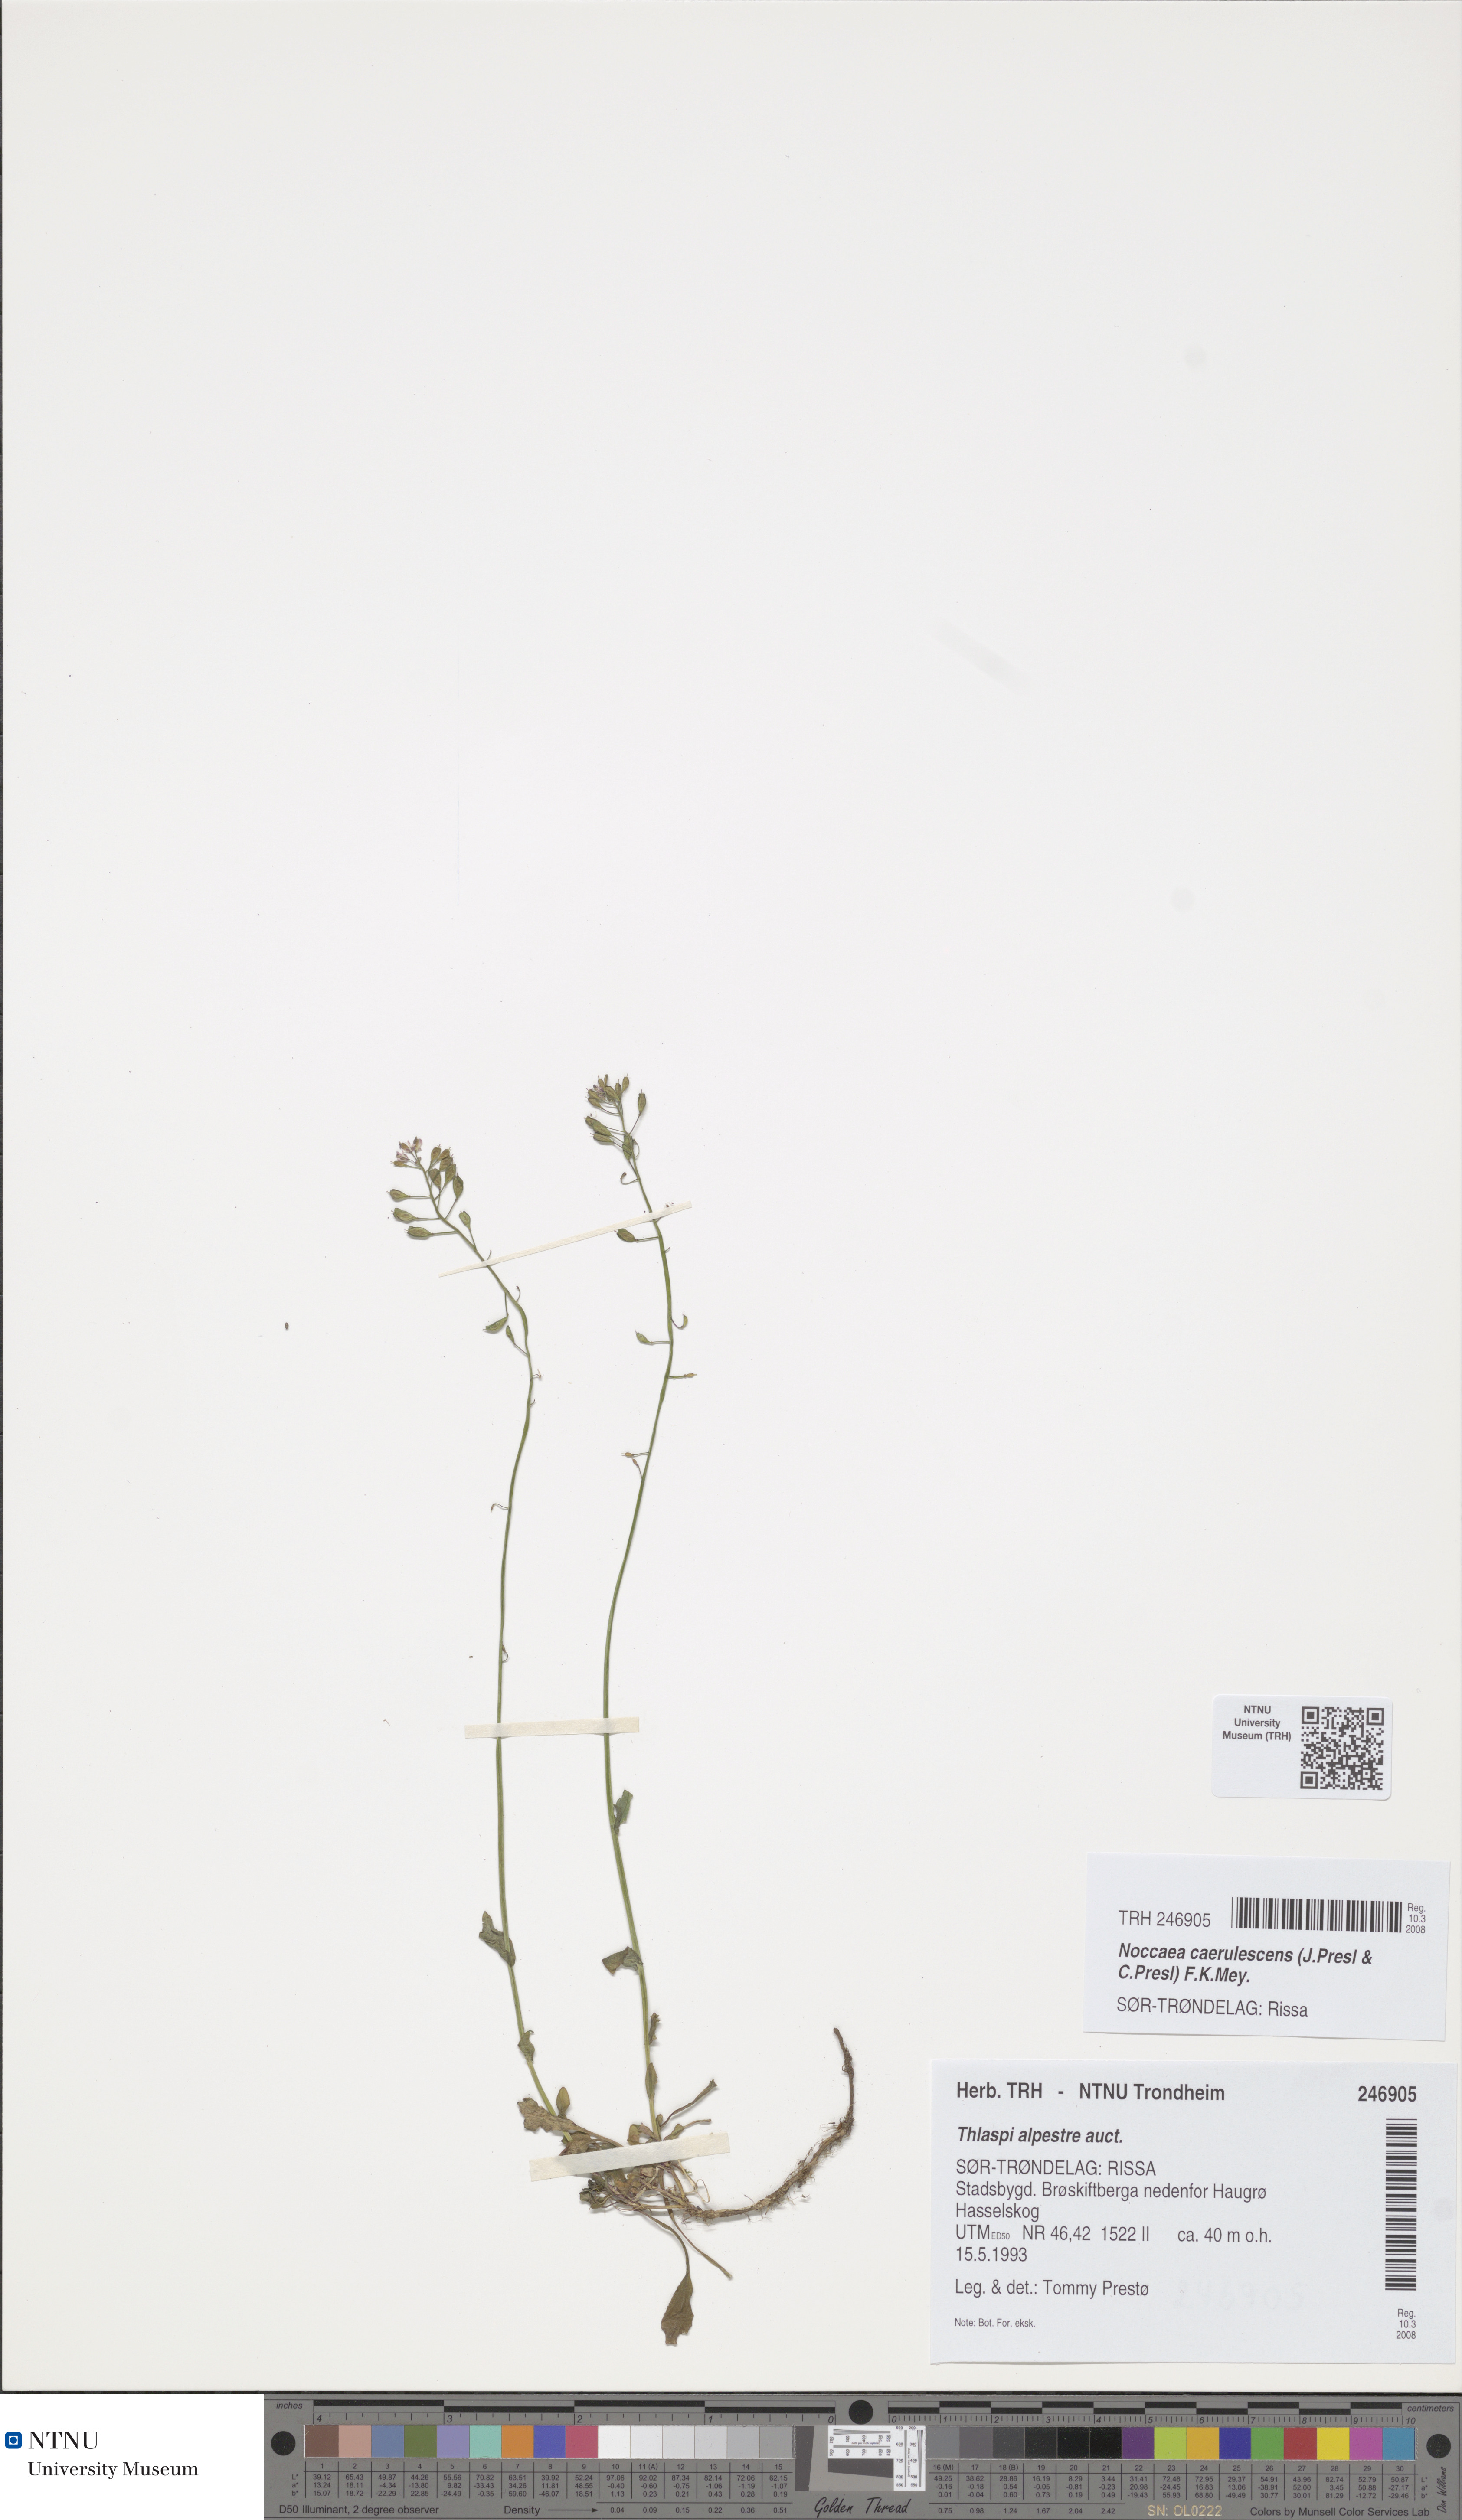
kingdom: Plantae
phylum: Tracheophyta
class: Magnoliopsida
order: Brassicales
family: Brassicaceae
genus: Noccaea
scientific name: Noccaea caerulescens
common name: Alpine pennycress
